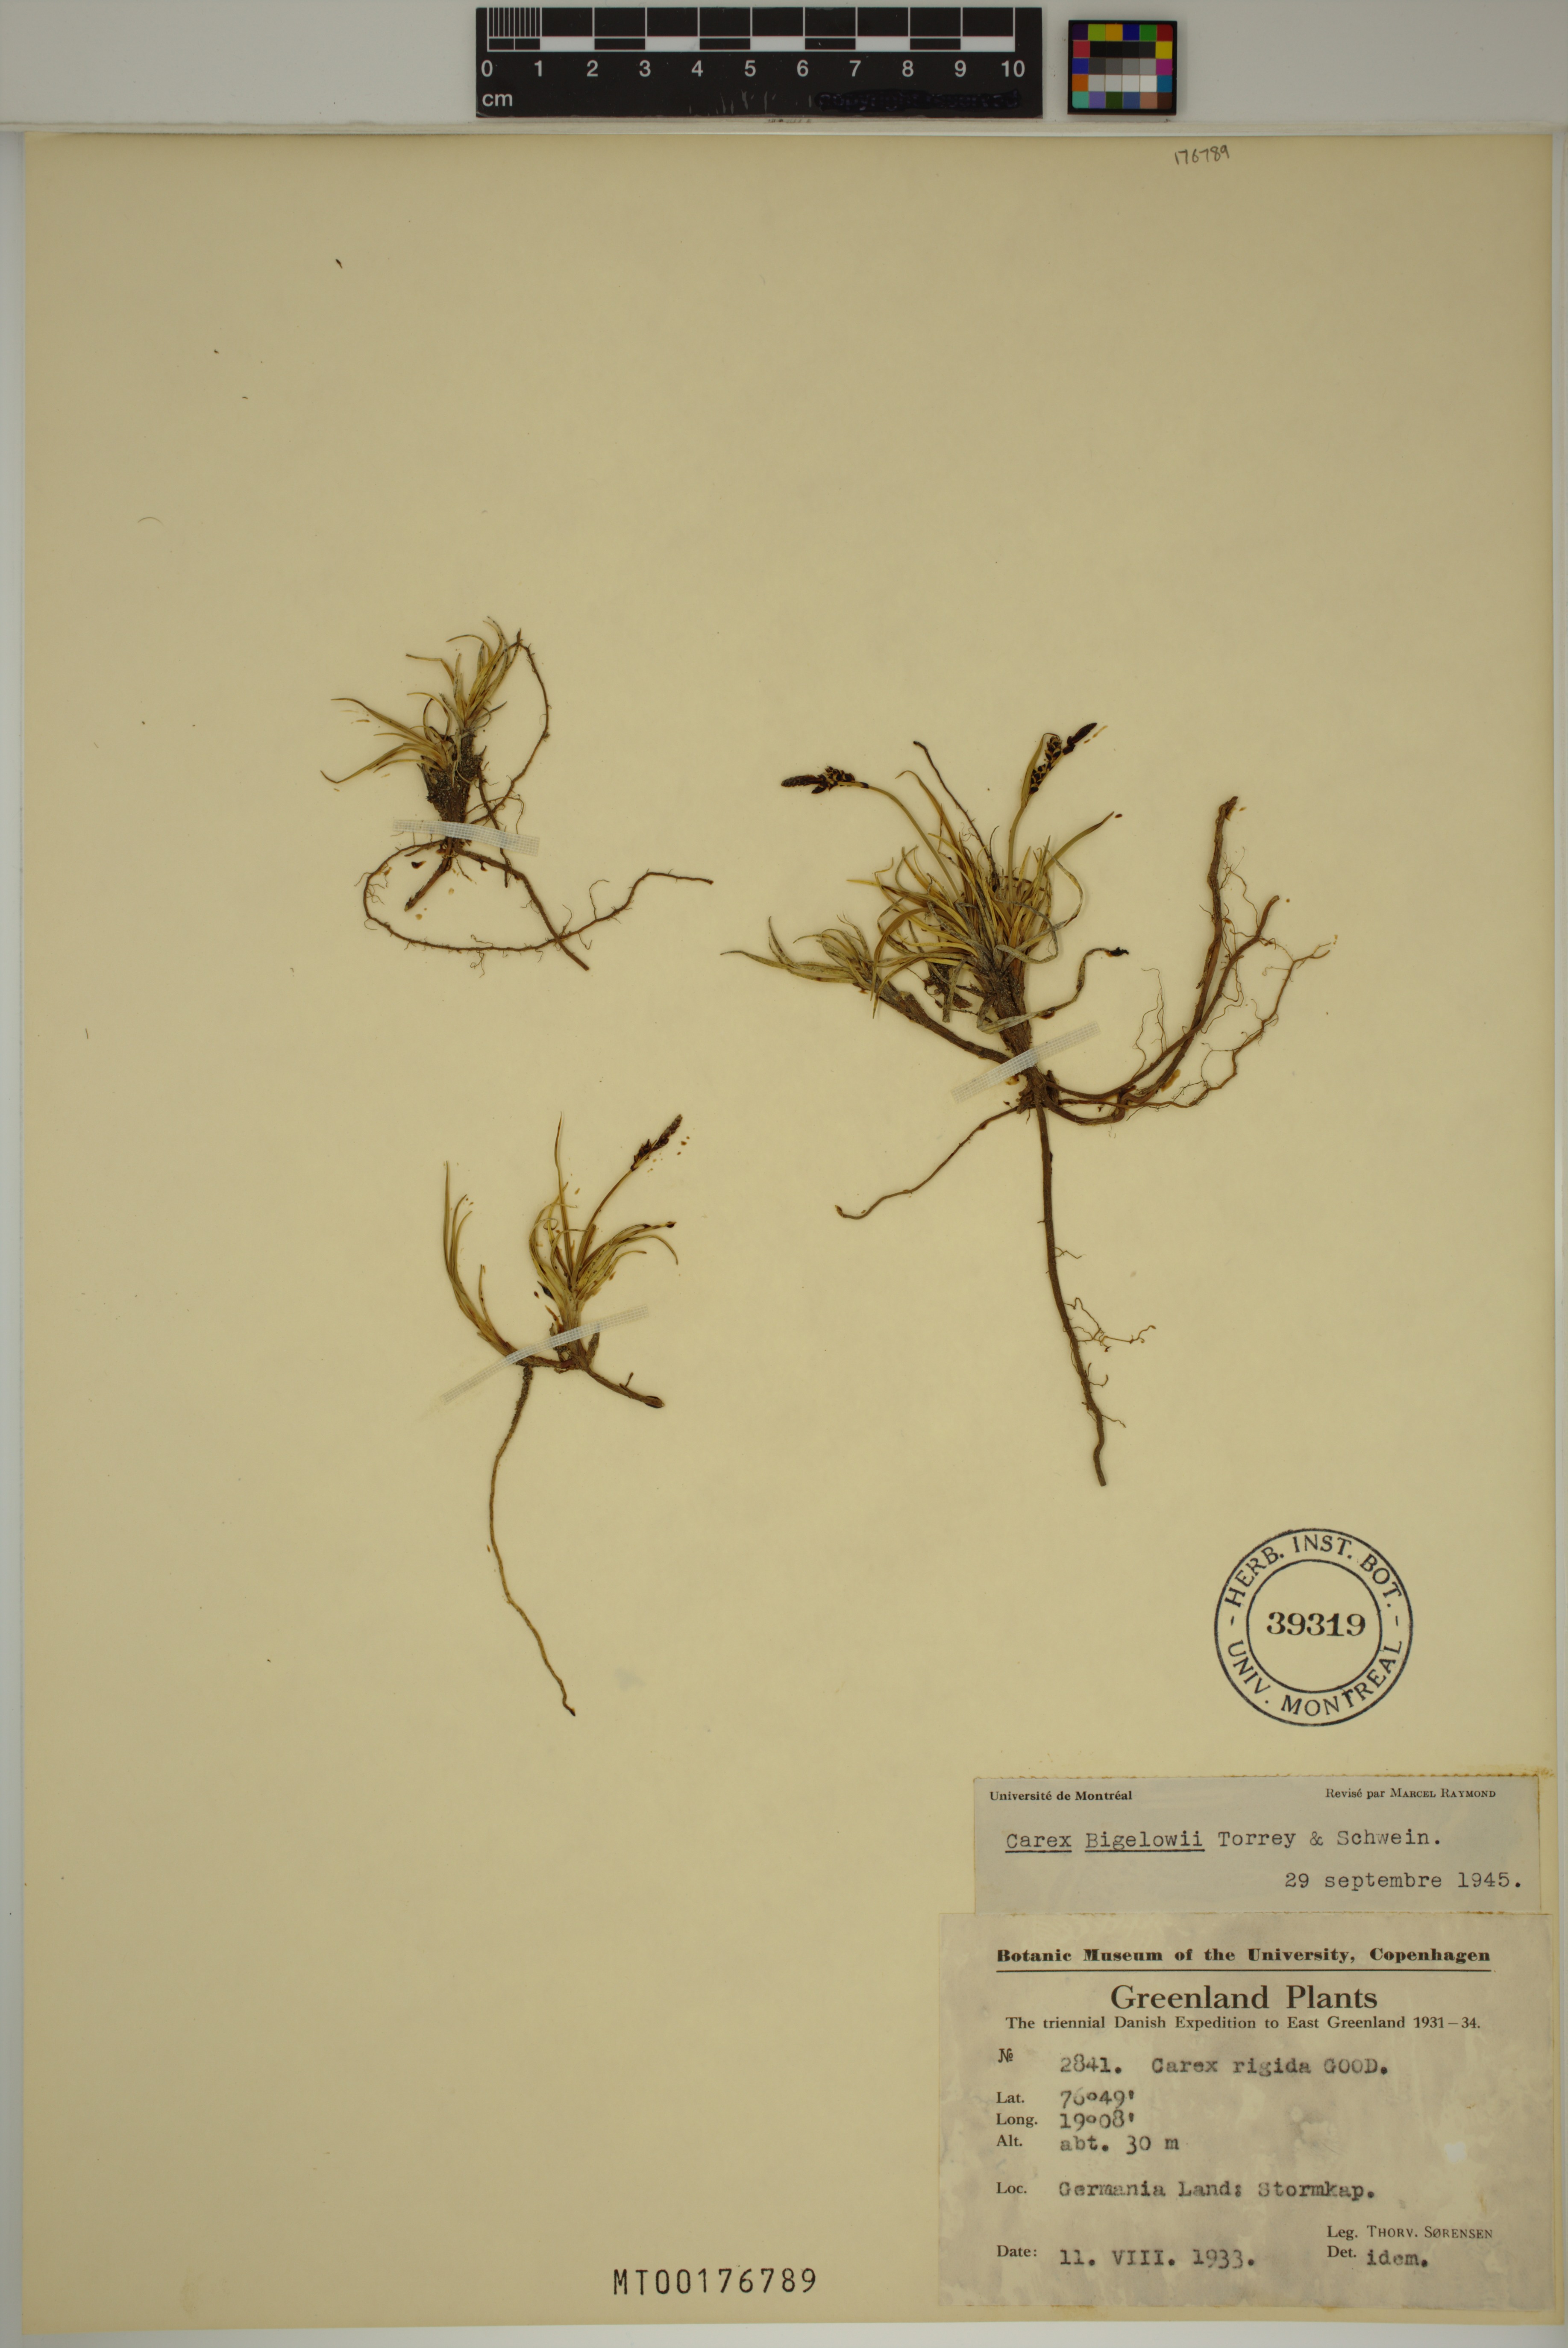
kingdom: Plantae
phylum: Tracheophyta
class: Liliopsida
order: Poales
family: Cyperaceae
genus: Carex
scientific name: Carex bigelowii
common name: Stiff sedge
